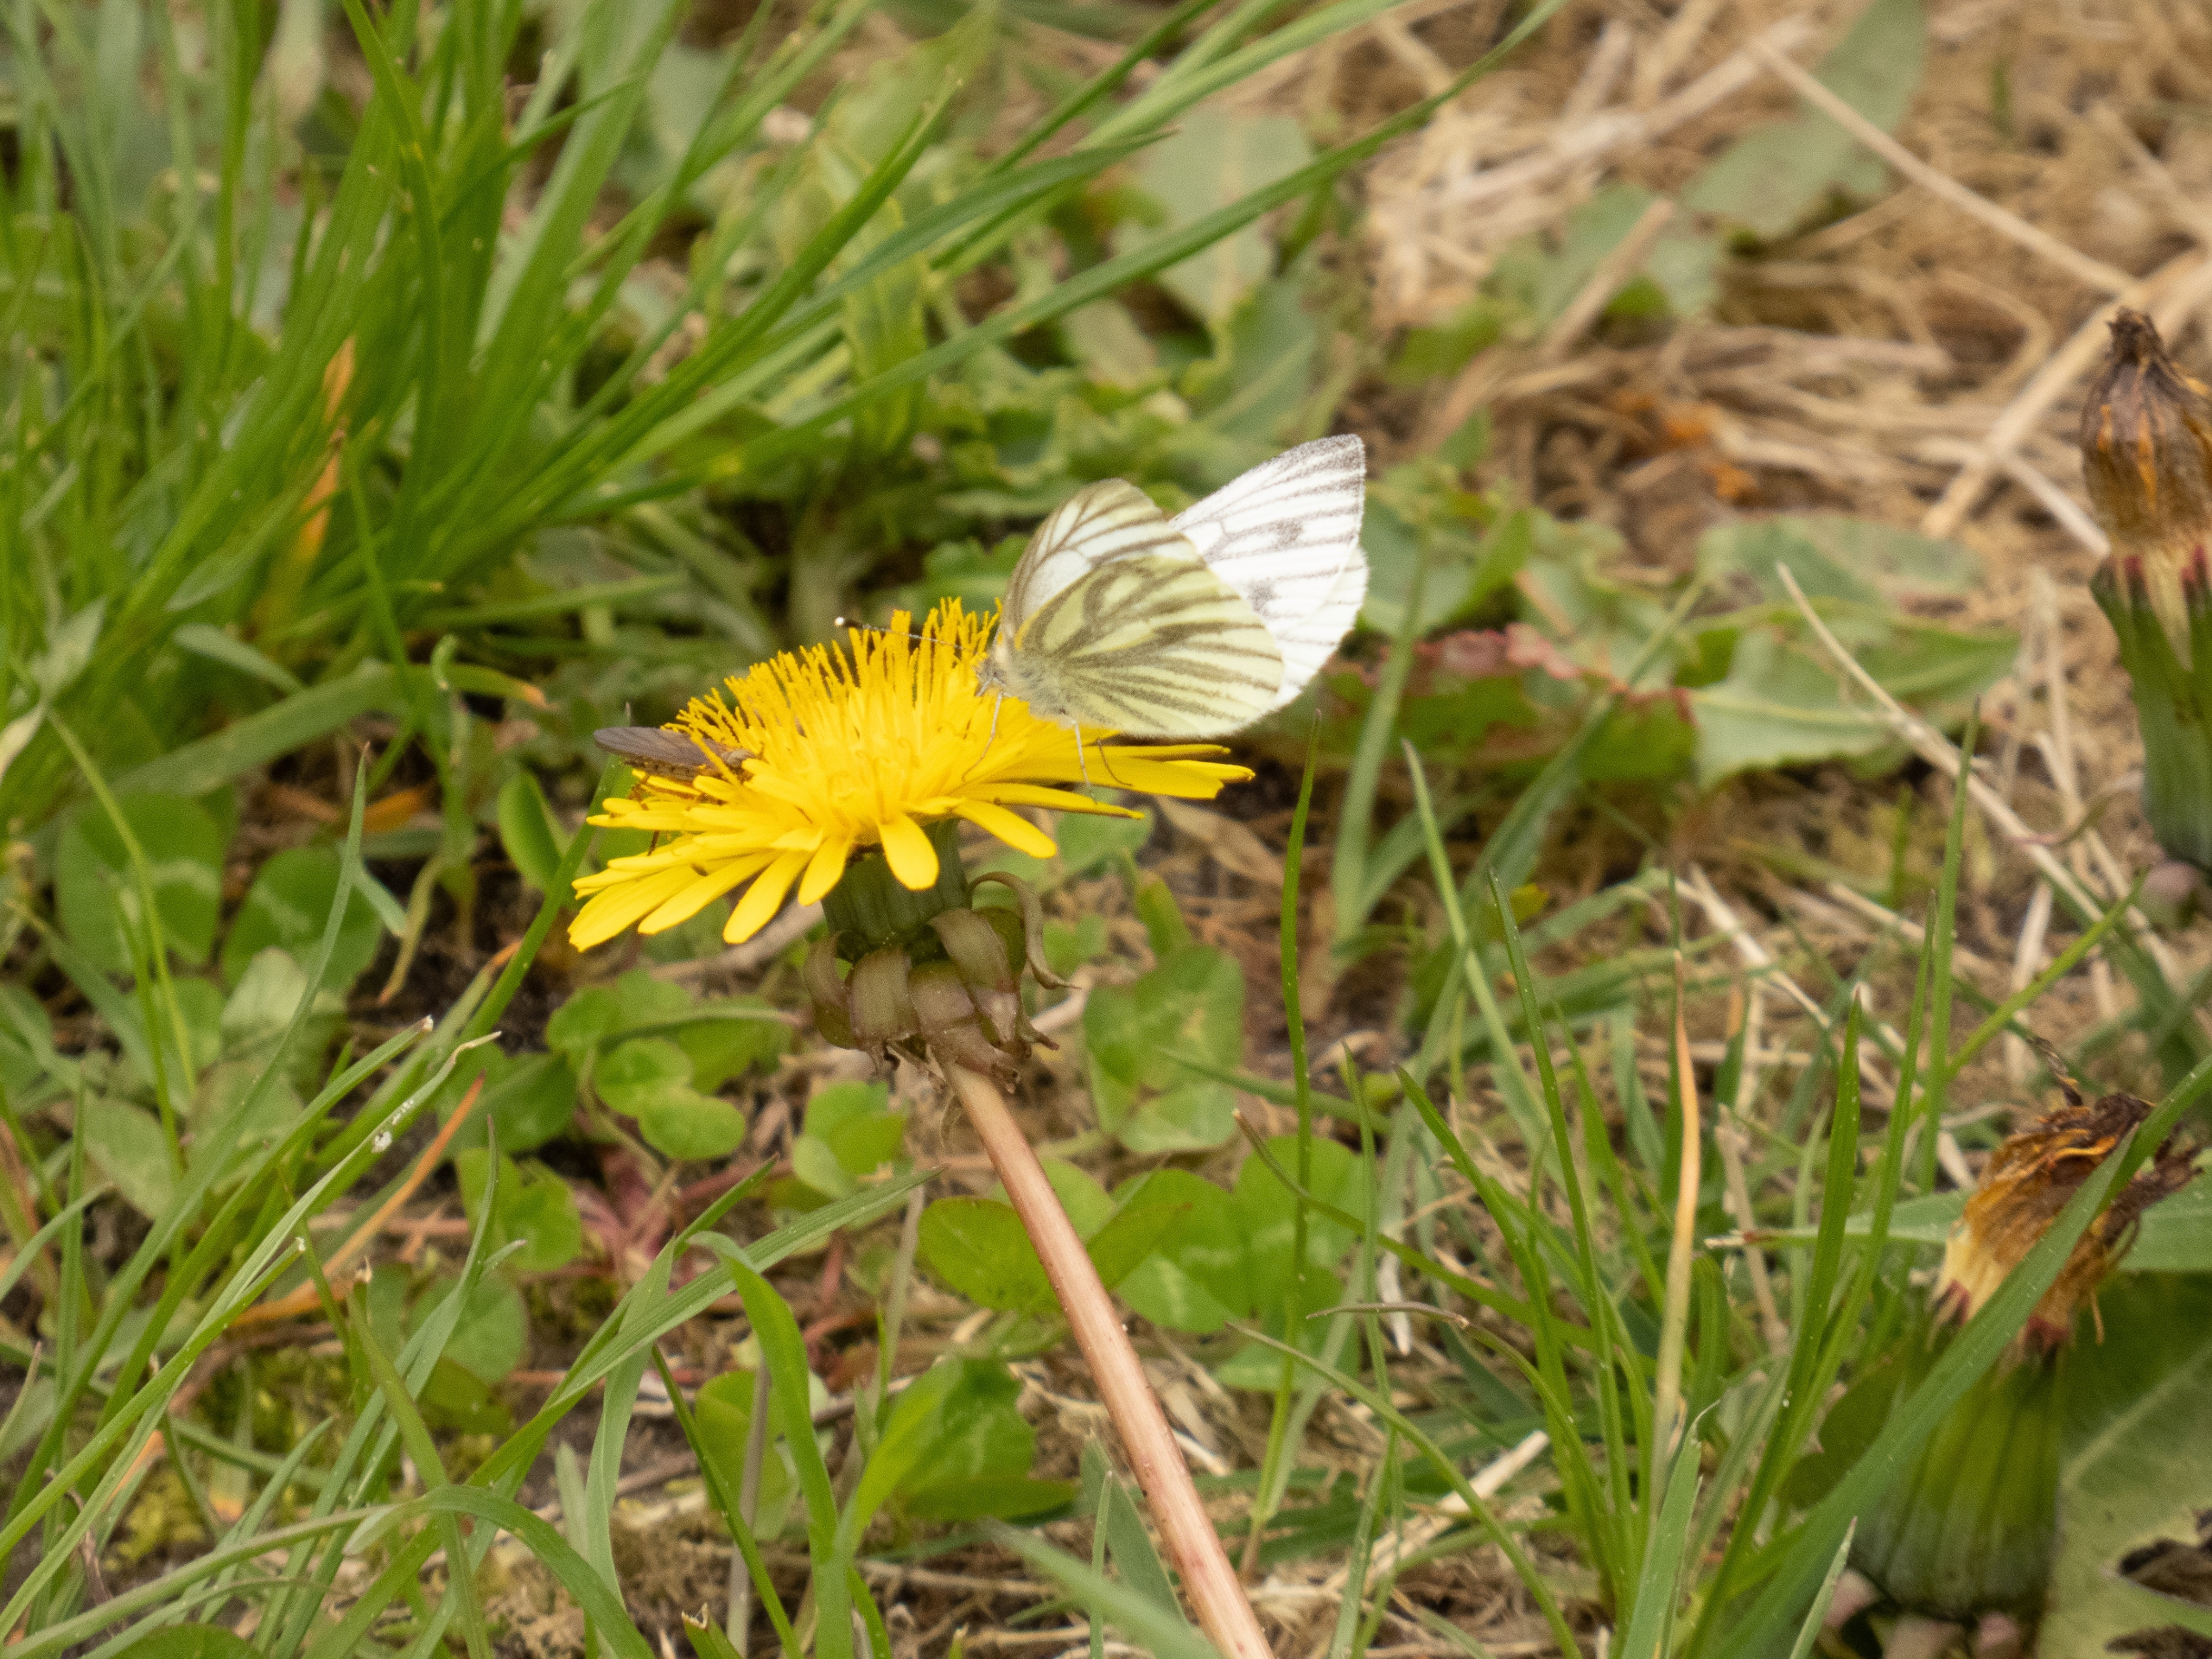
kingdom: Animalia
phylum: Arthropoda
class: Insecta
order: Lepidoptera
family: Pieridae
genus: Pieris
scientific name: Pieris napi
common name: Grønåret kålsommerfugl
